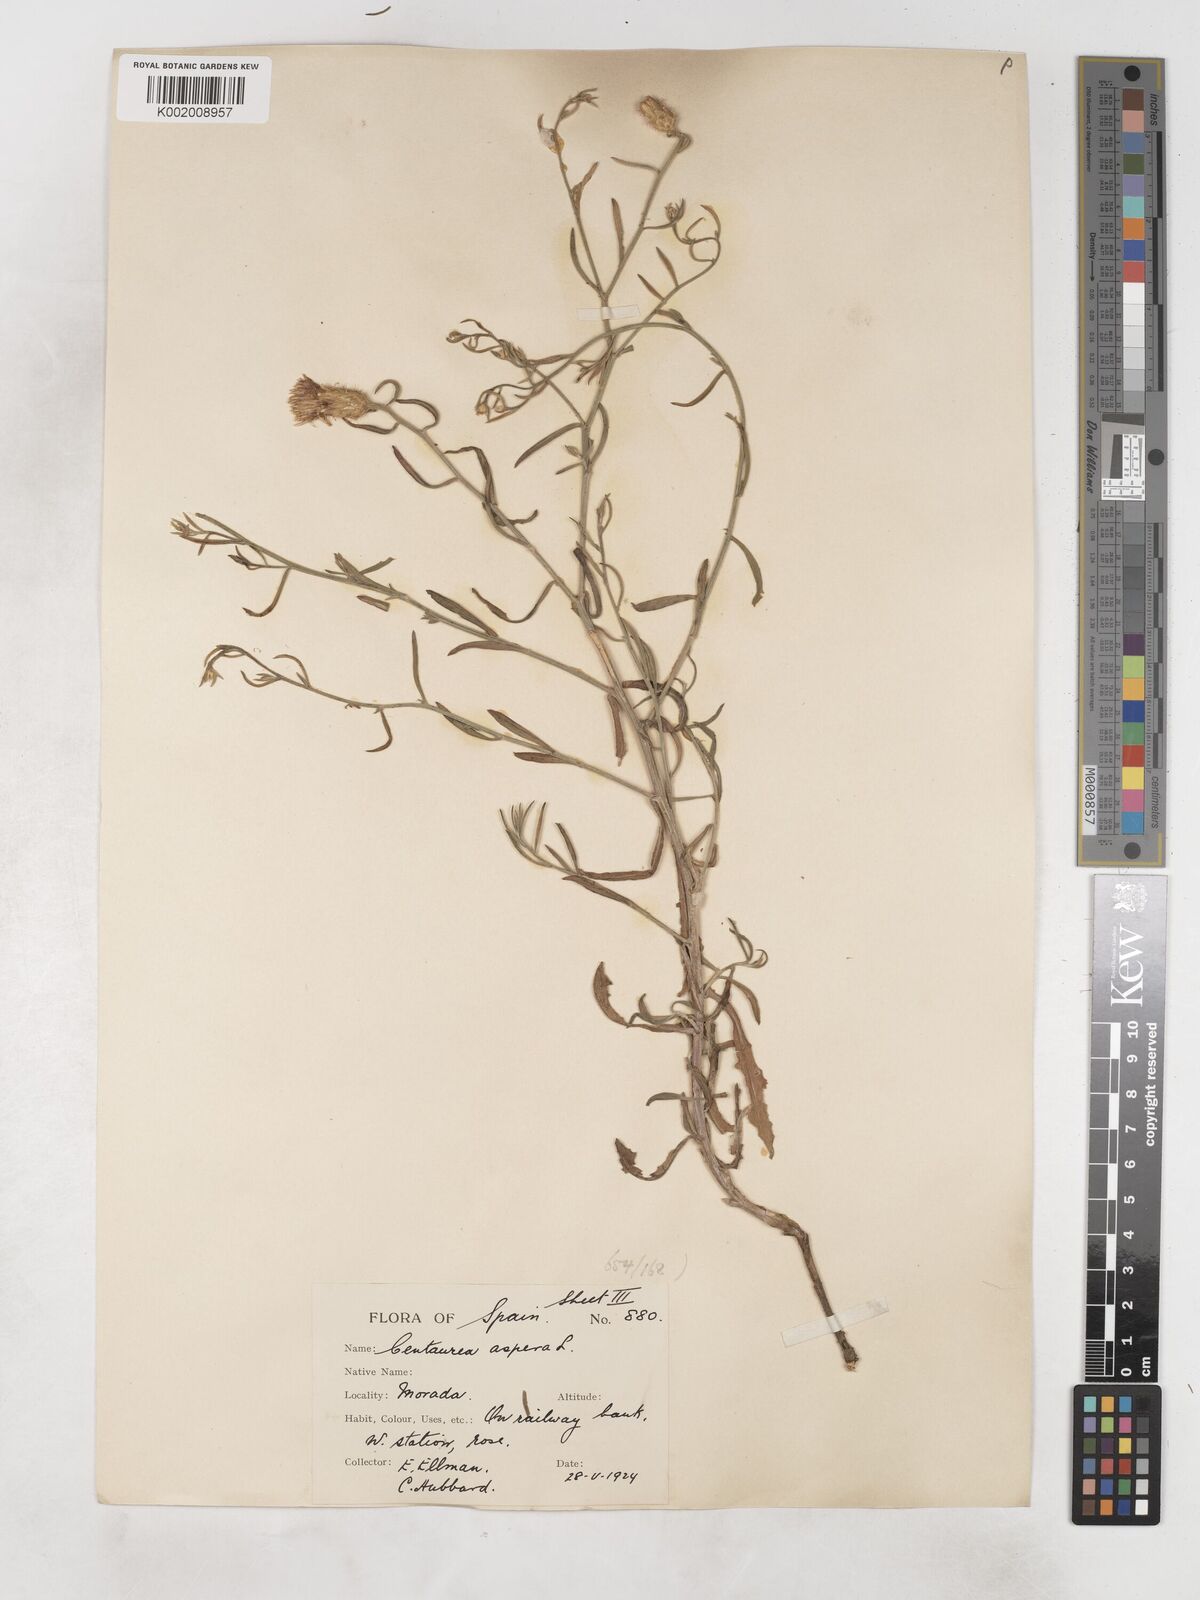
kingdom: Plantae
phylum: Tracheophyta
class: Magnoliopsida
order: Asterales
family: Asteraceae
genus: Centaurea
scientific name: Centaurea aspera
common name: Rough star-thistle
